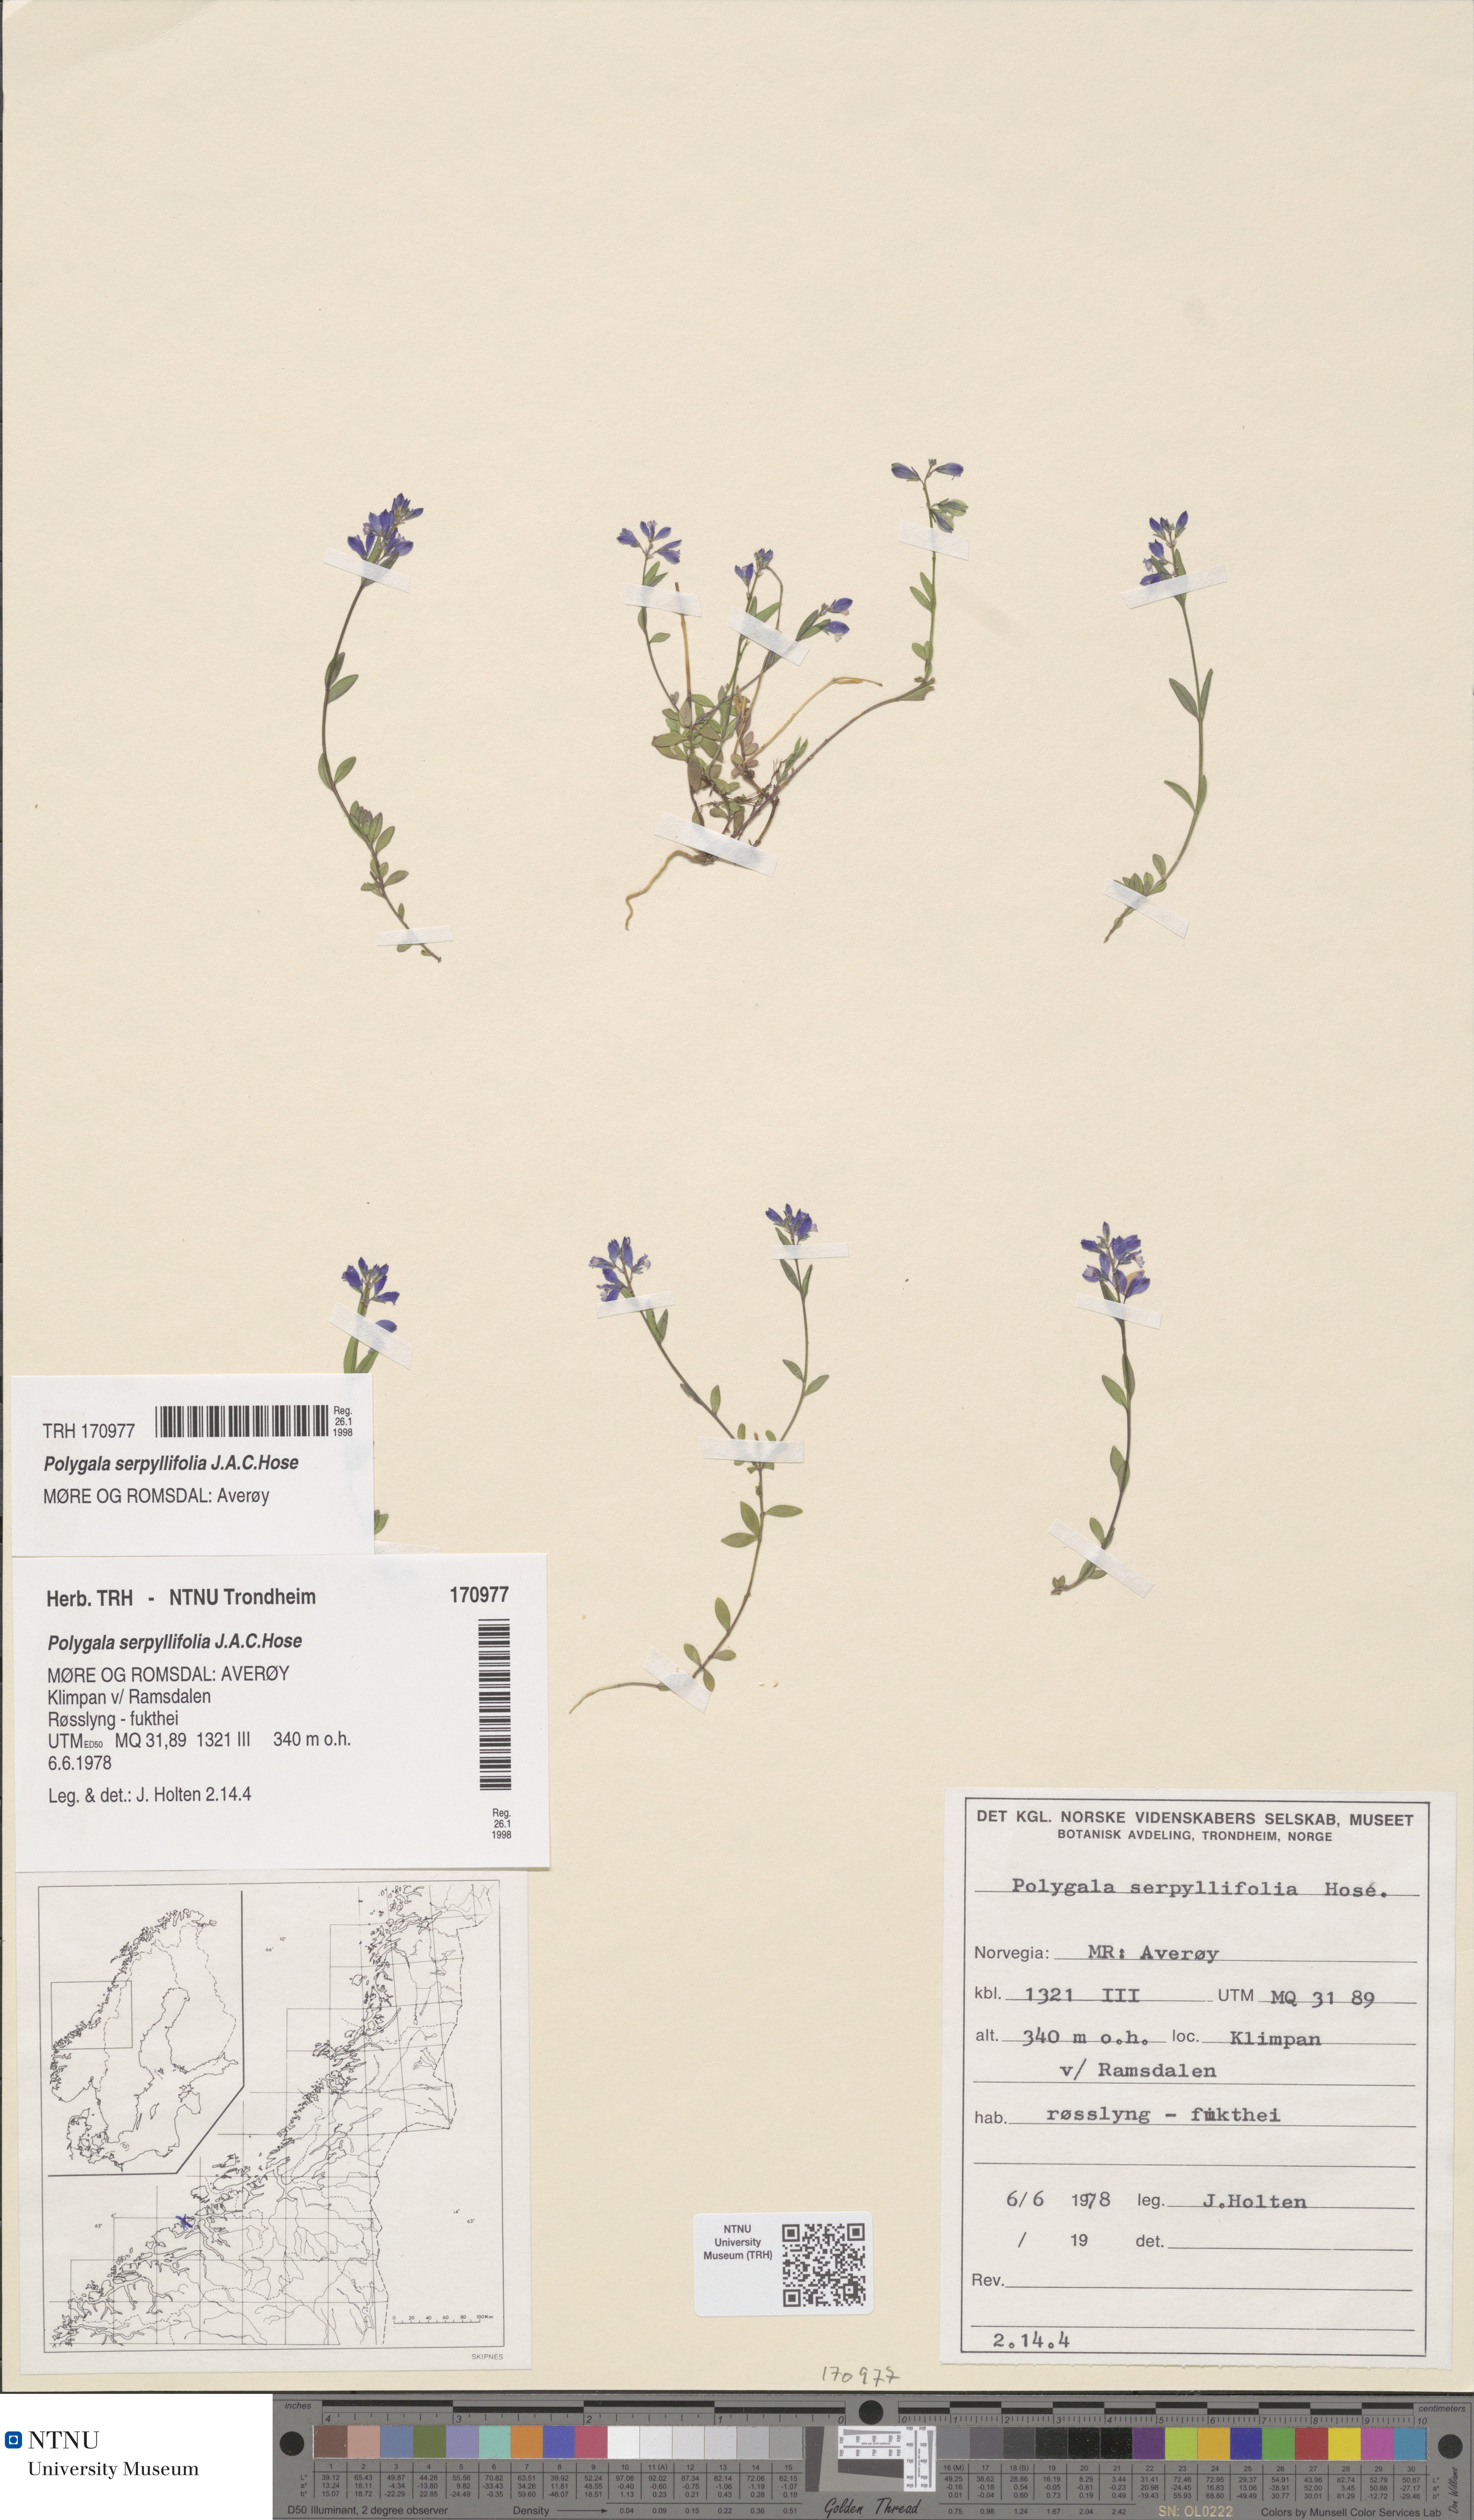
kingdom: Plantae
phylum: Tracheophyta
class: Magnoliopsida
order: Fabales
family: Polygalaceae
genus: Polygala
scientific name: Polygala serpyllifolia
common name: Heath milkwort
